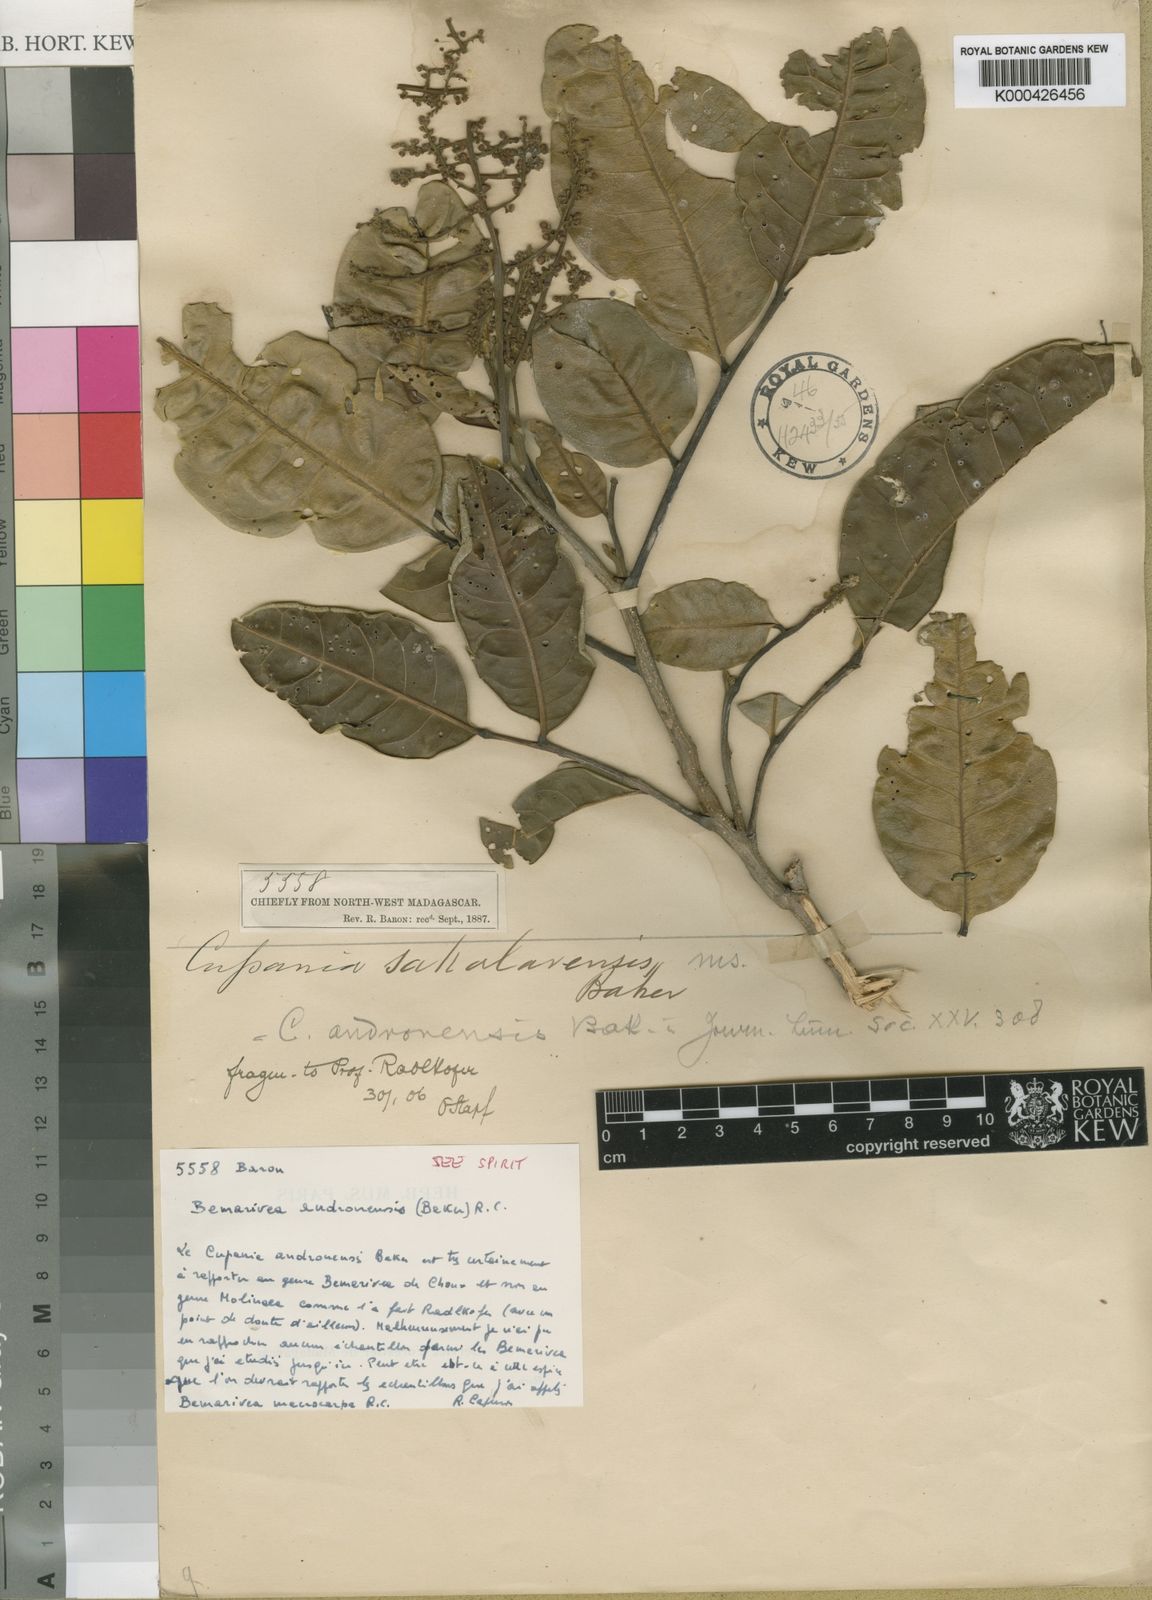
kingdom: Plantae
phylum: Tracheophyta
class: Magnoliopsida
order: Sapindales
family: Sapindaceae
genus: Molinaea
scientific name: Molinaea
